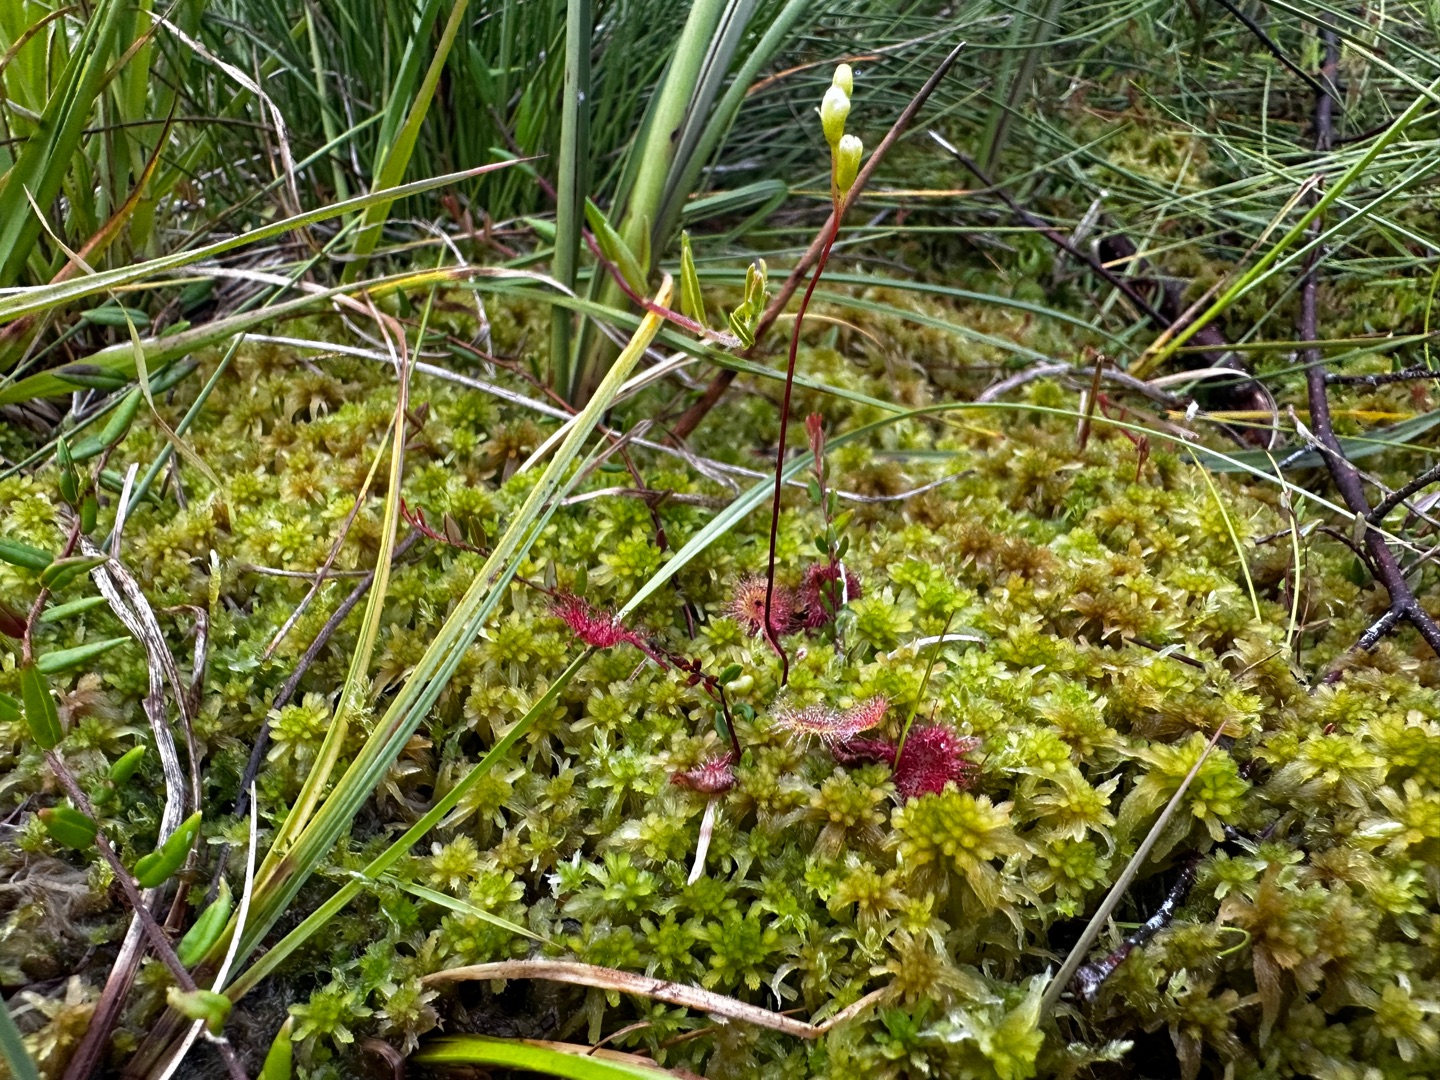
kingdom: Plantae
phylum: Tracheophyta
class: Magnoliopsida
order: Caryophyllales
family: Droseraceae
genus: Drosera
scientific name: Drosera rotundifolia
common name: Rundbladet soldug
